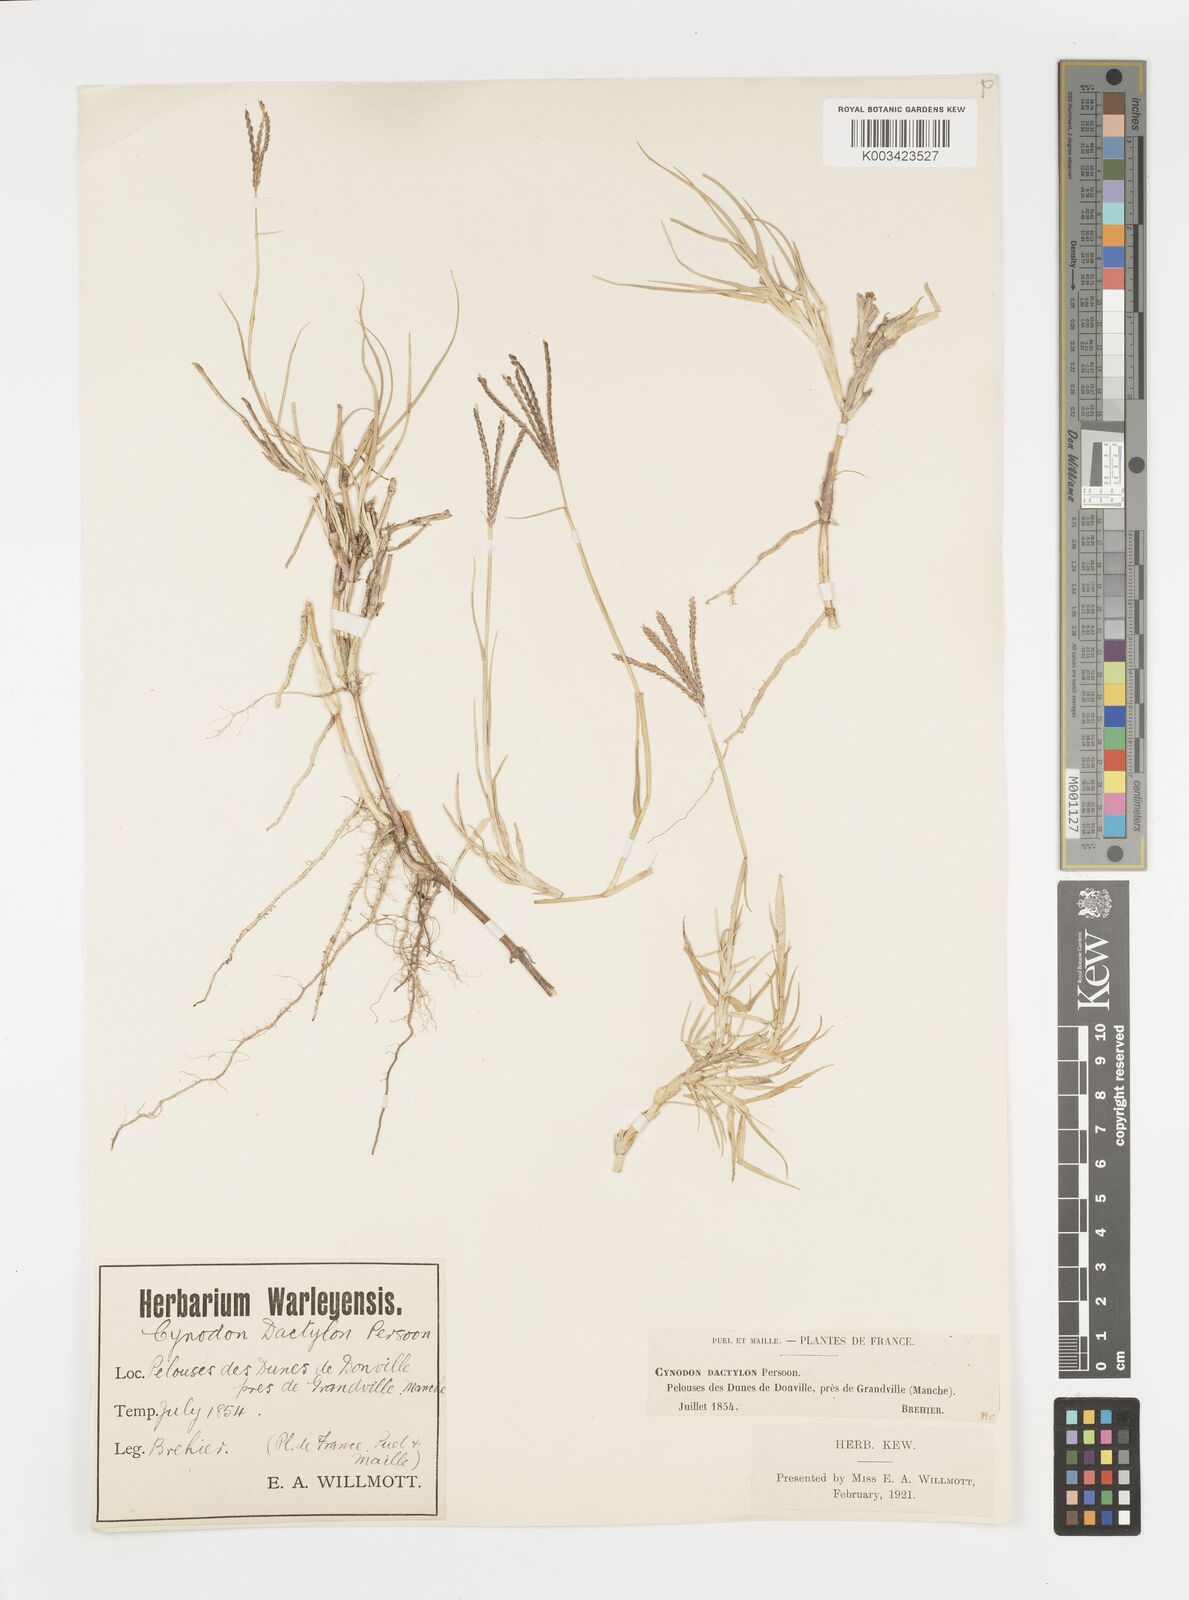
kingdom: Plantae
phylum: Tracheophyta
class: Liliopsida
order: Poales
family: Poaceae
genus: Cynodon
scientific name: Cynodon dactylon
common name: Bermuda grass
